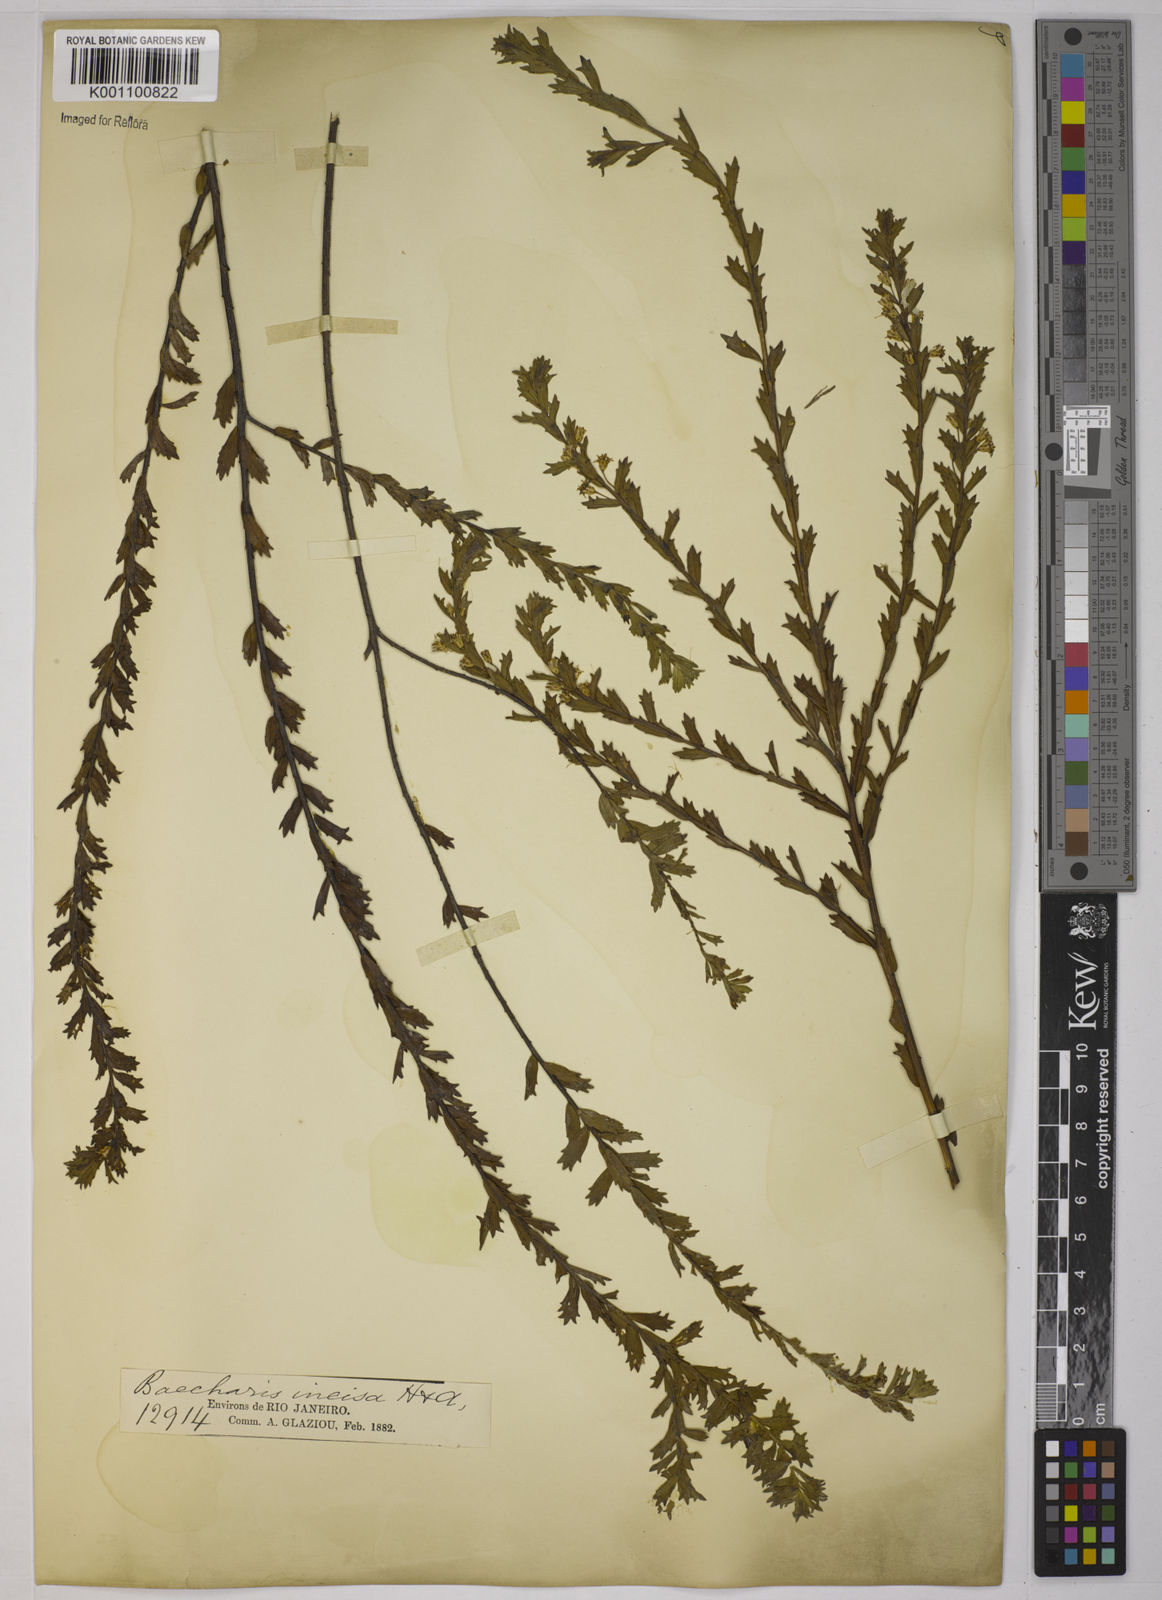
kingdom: Plantae
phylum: Tracheophyta
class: Magnoliopsida
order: Asterales
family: Asteraceae
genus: Baccharis
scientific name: Baccharis incisa
